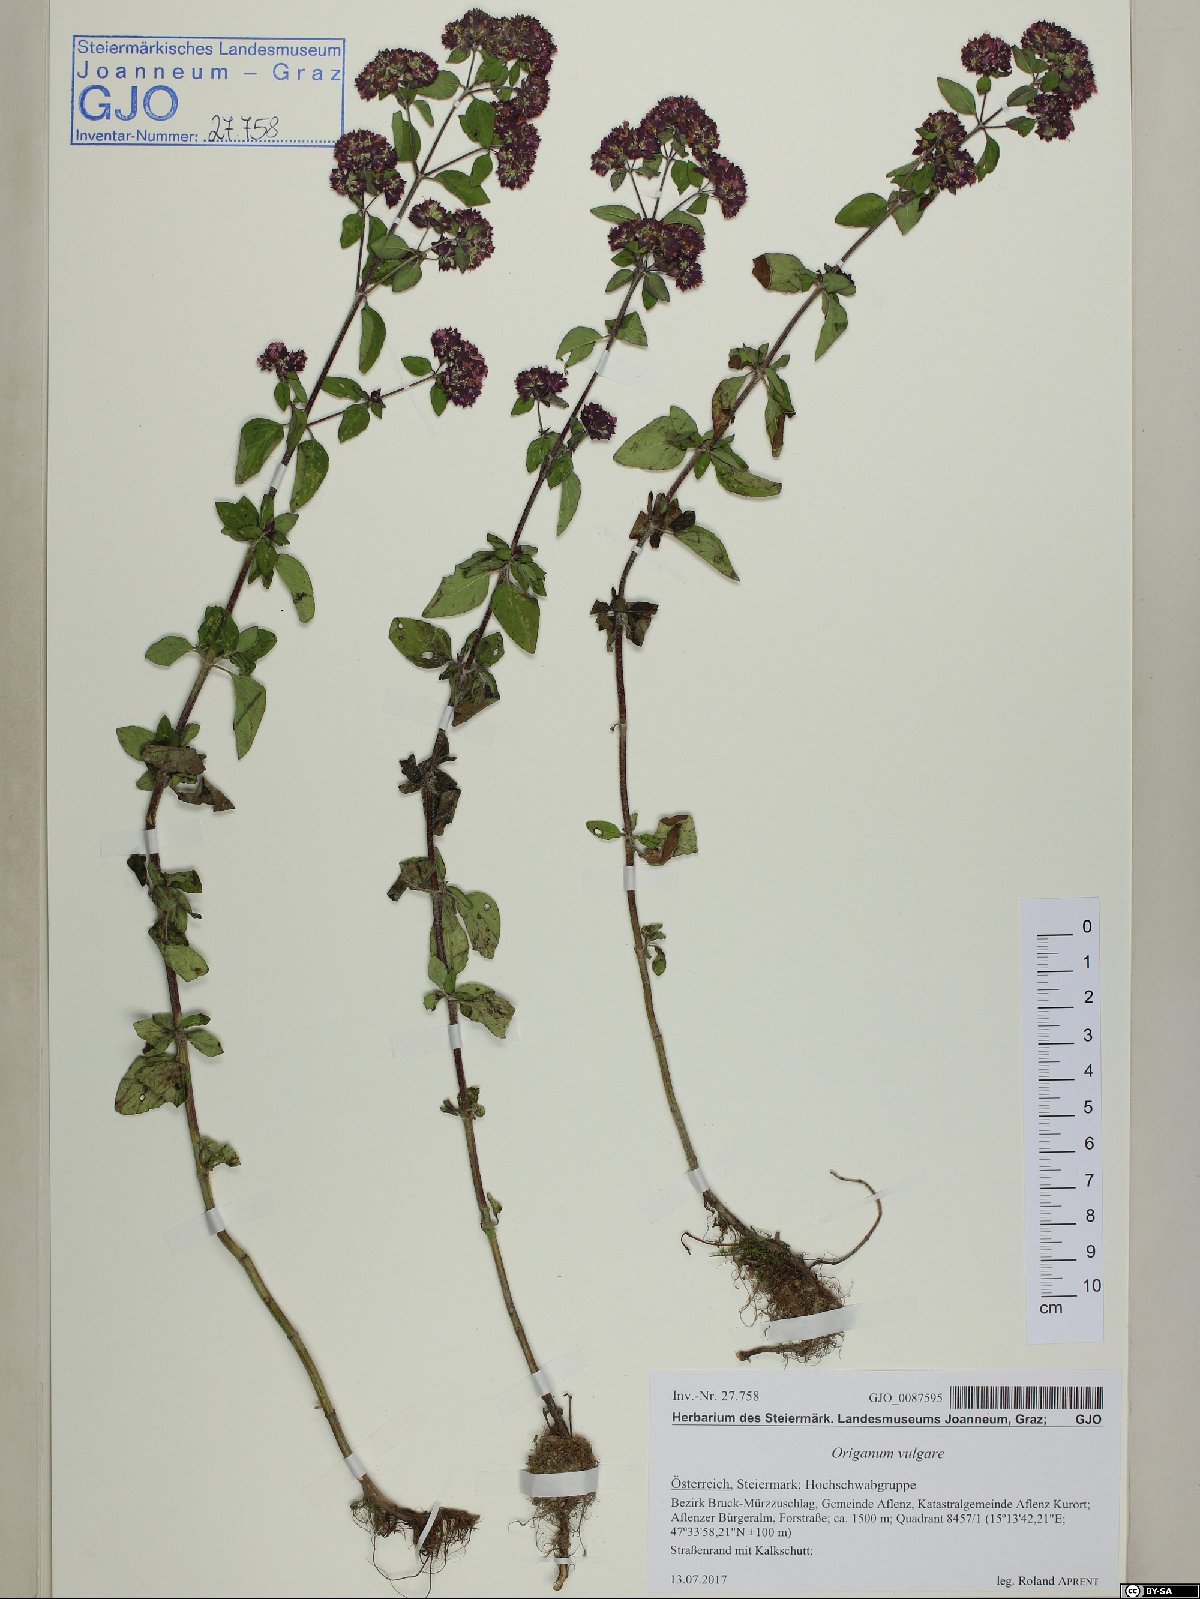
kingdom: Plantae
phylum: Tracheophyta
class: Magnoliopsida
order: Lamiales
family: Lamiaceae
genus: Origanum
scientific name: Origanum vulgare
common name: Wild marjoram
